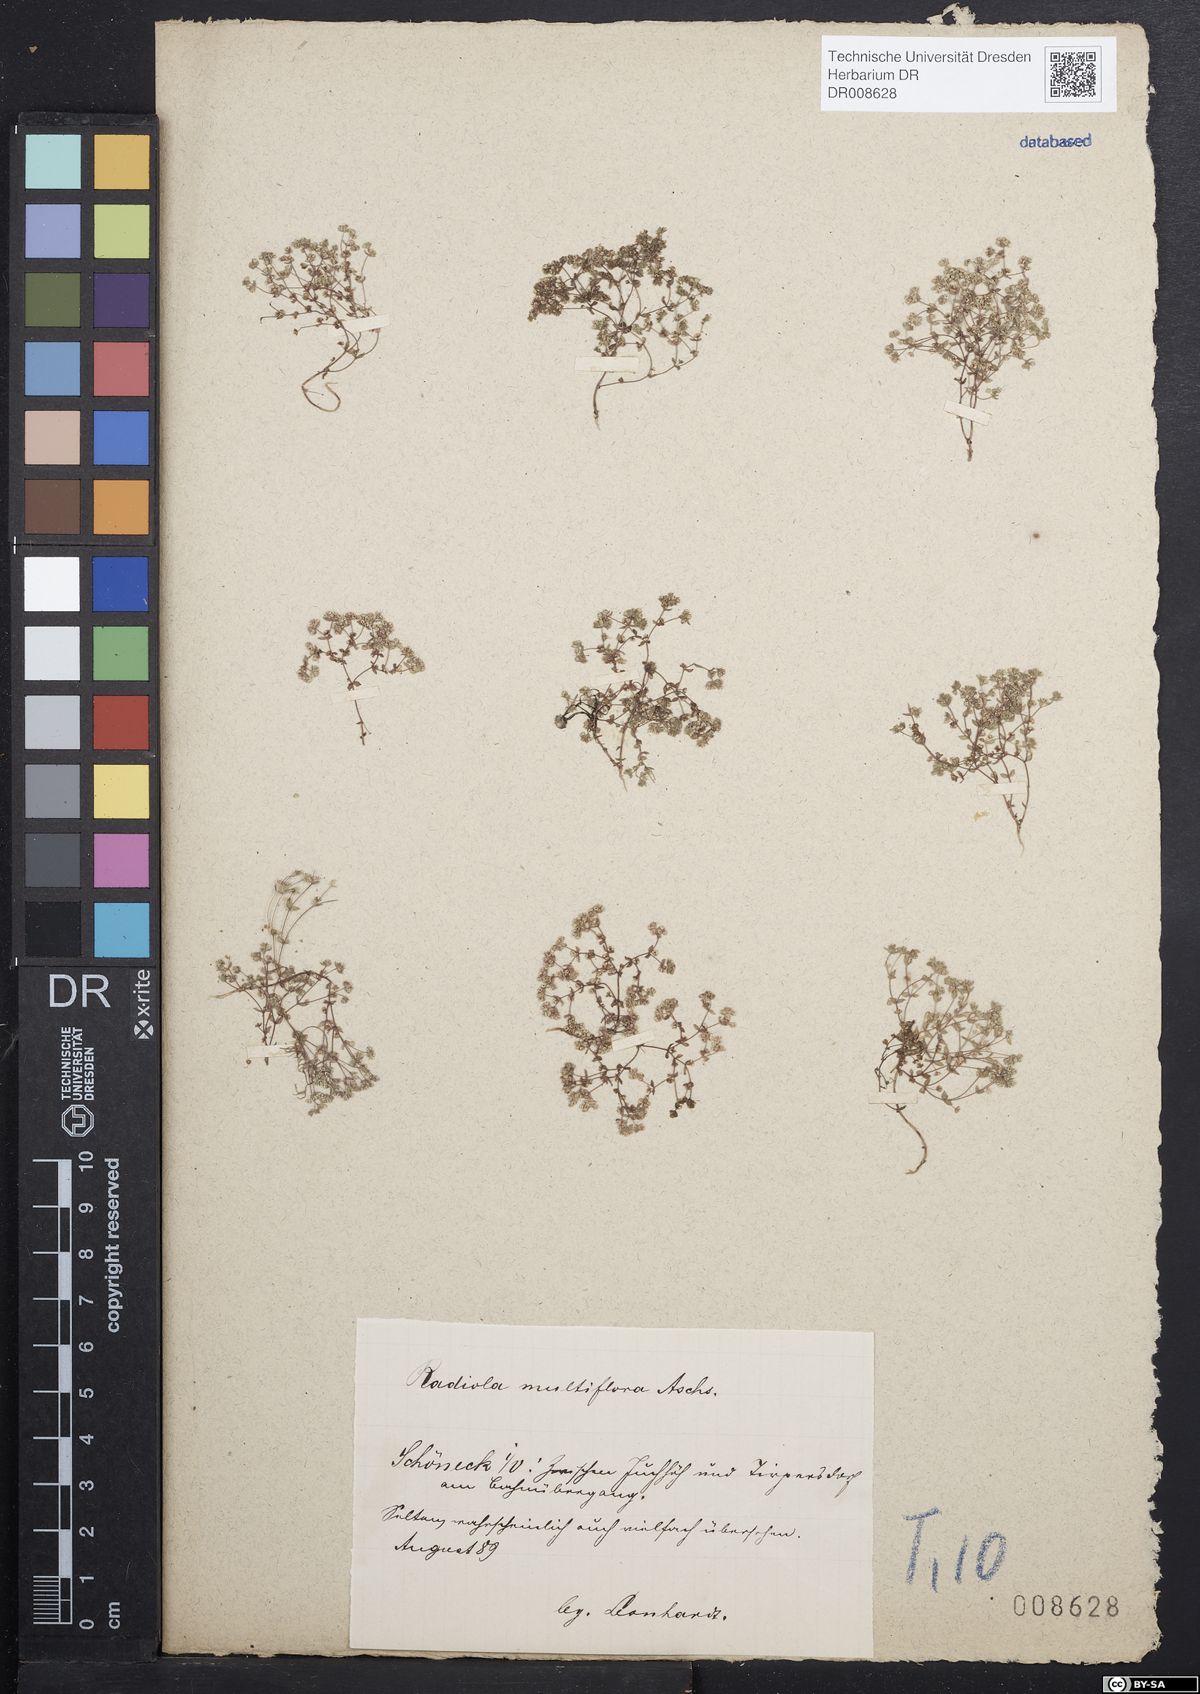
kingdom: Plantae
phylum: Tracheophyta
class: Magnoliopsida
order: Malpighiales
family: Linaceae
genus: Radiola
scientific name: Radiola linoides
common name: Allseed
